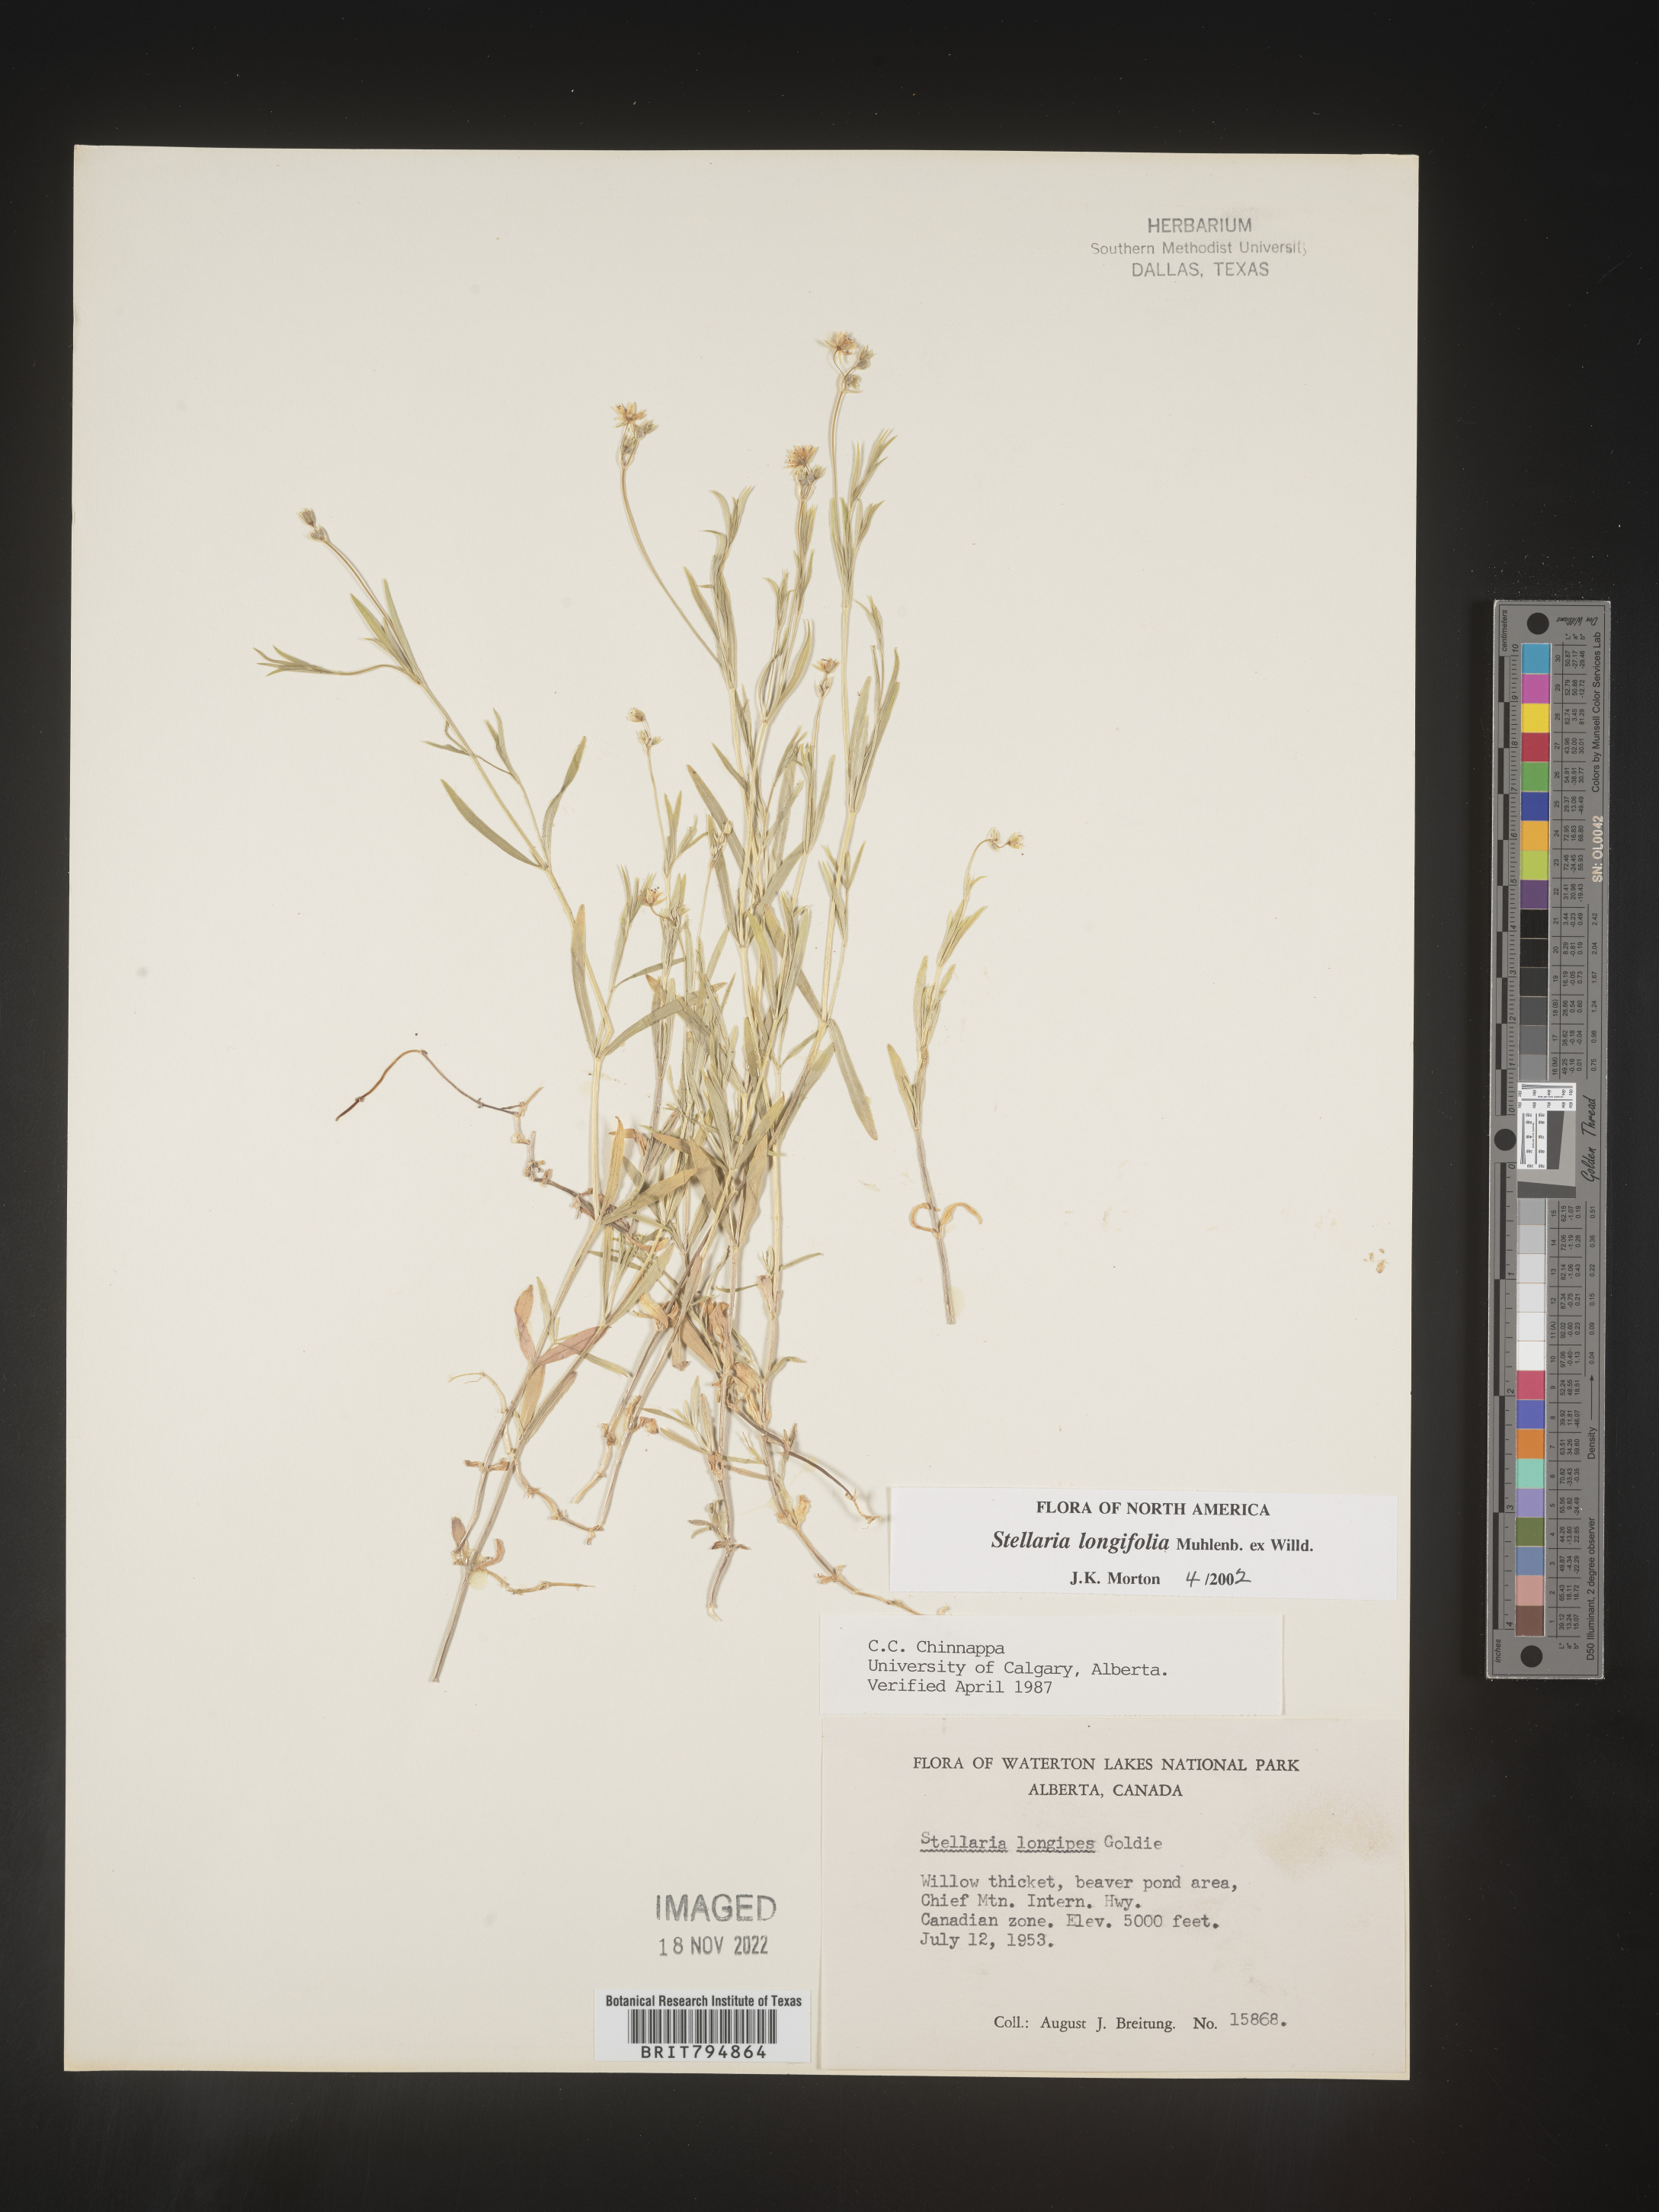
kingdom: Plantae
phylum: Tracheophyta
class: Magnoliopsida
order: Caryophyllales
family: Caryophyllaceae
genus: Stellaria
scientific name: Stellaria longifolia
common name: Long-leaved chickweed
